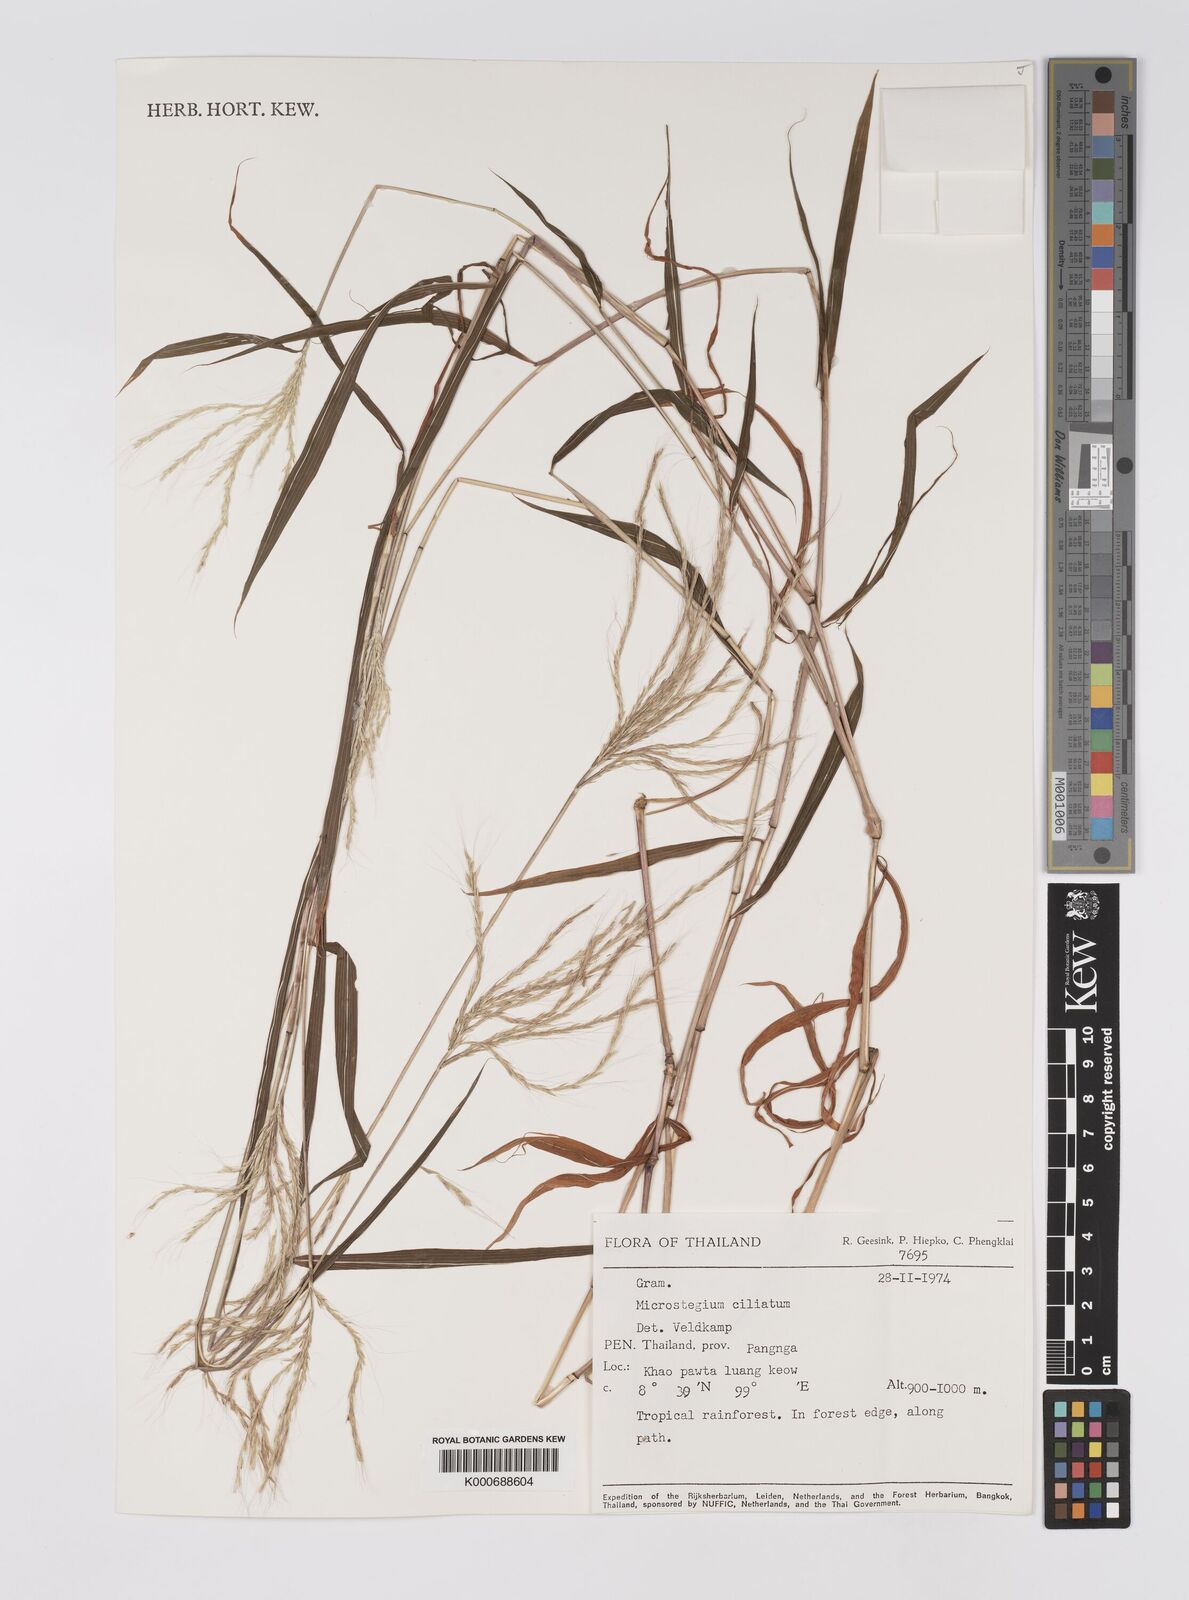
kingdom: Plantae
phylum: Tracheophyta
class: Liliopsida
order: Poales
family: Poaceae
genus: Microstegium
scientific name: Microstegium fasciculatum
